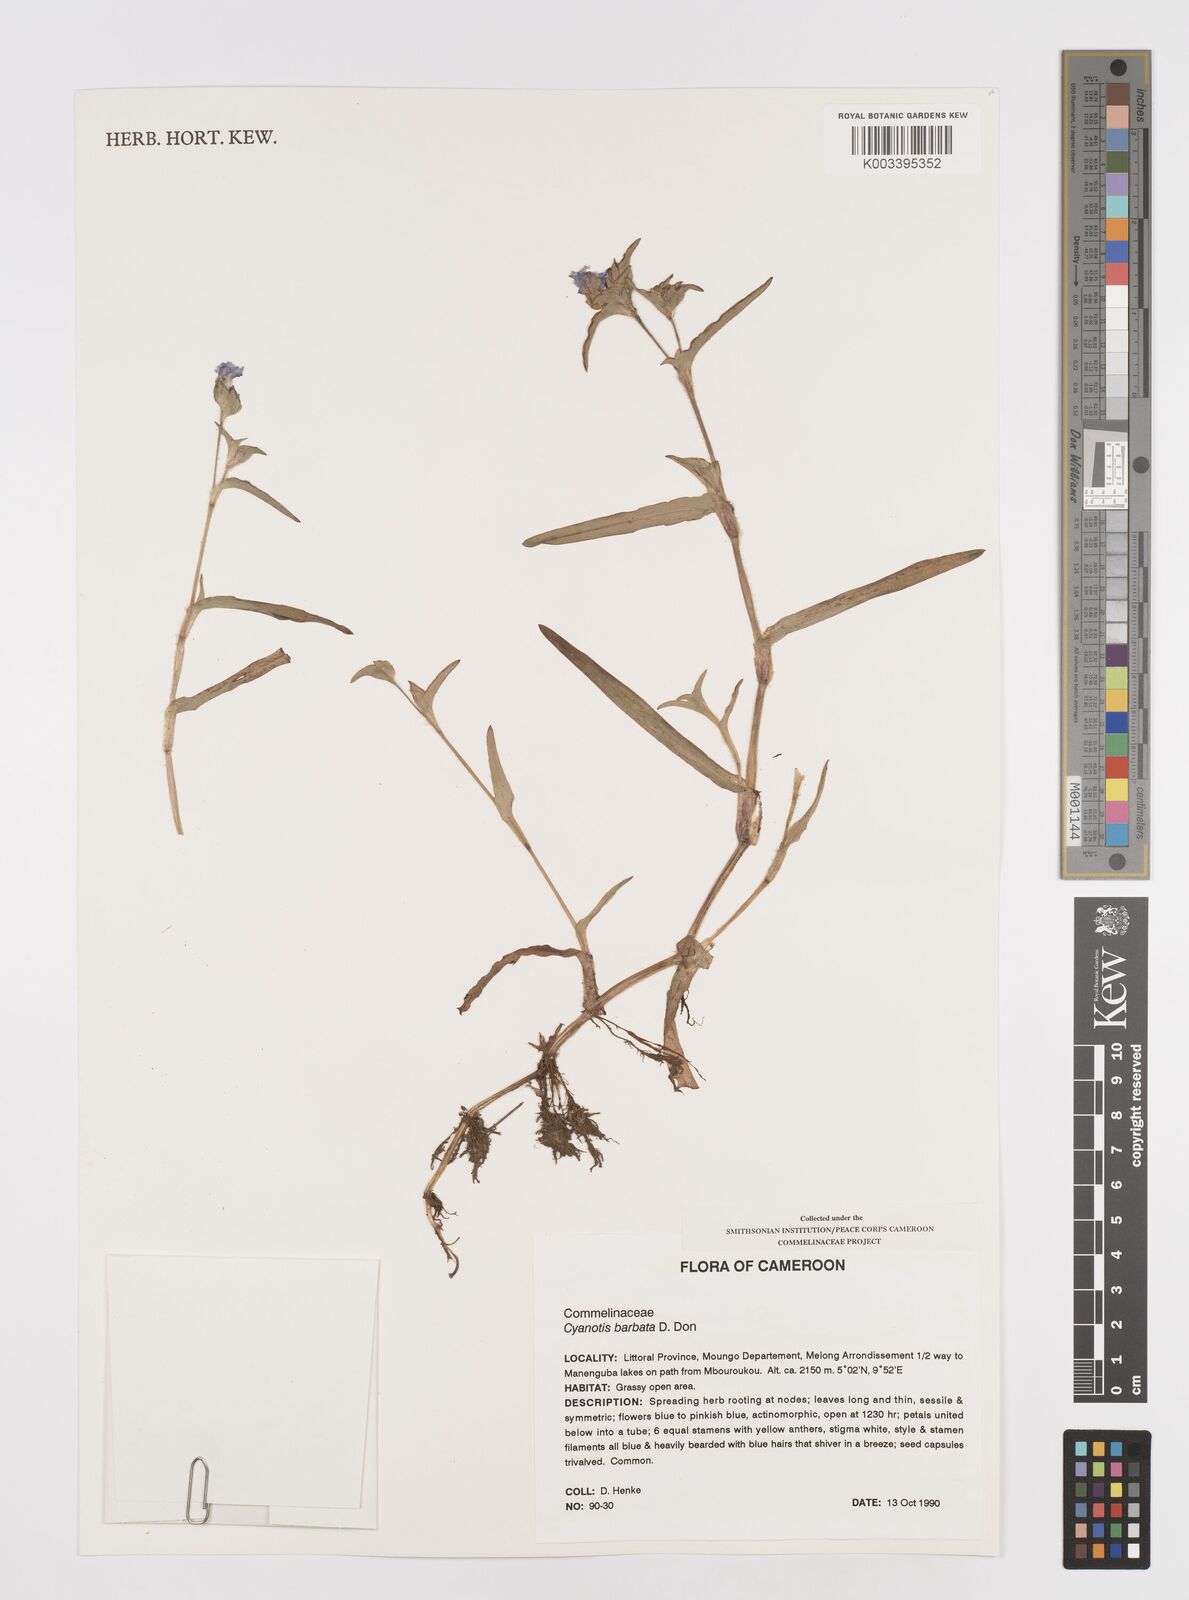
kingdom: Plantae
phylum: Tracheophyta
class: Liliopsida
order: Commelinales
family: Commelinaceae
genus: Cyanotis
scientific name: Cyanotis vaga
